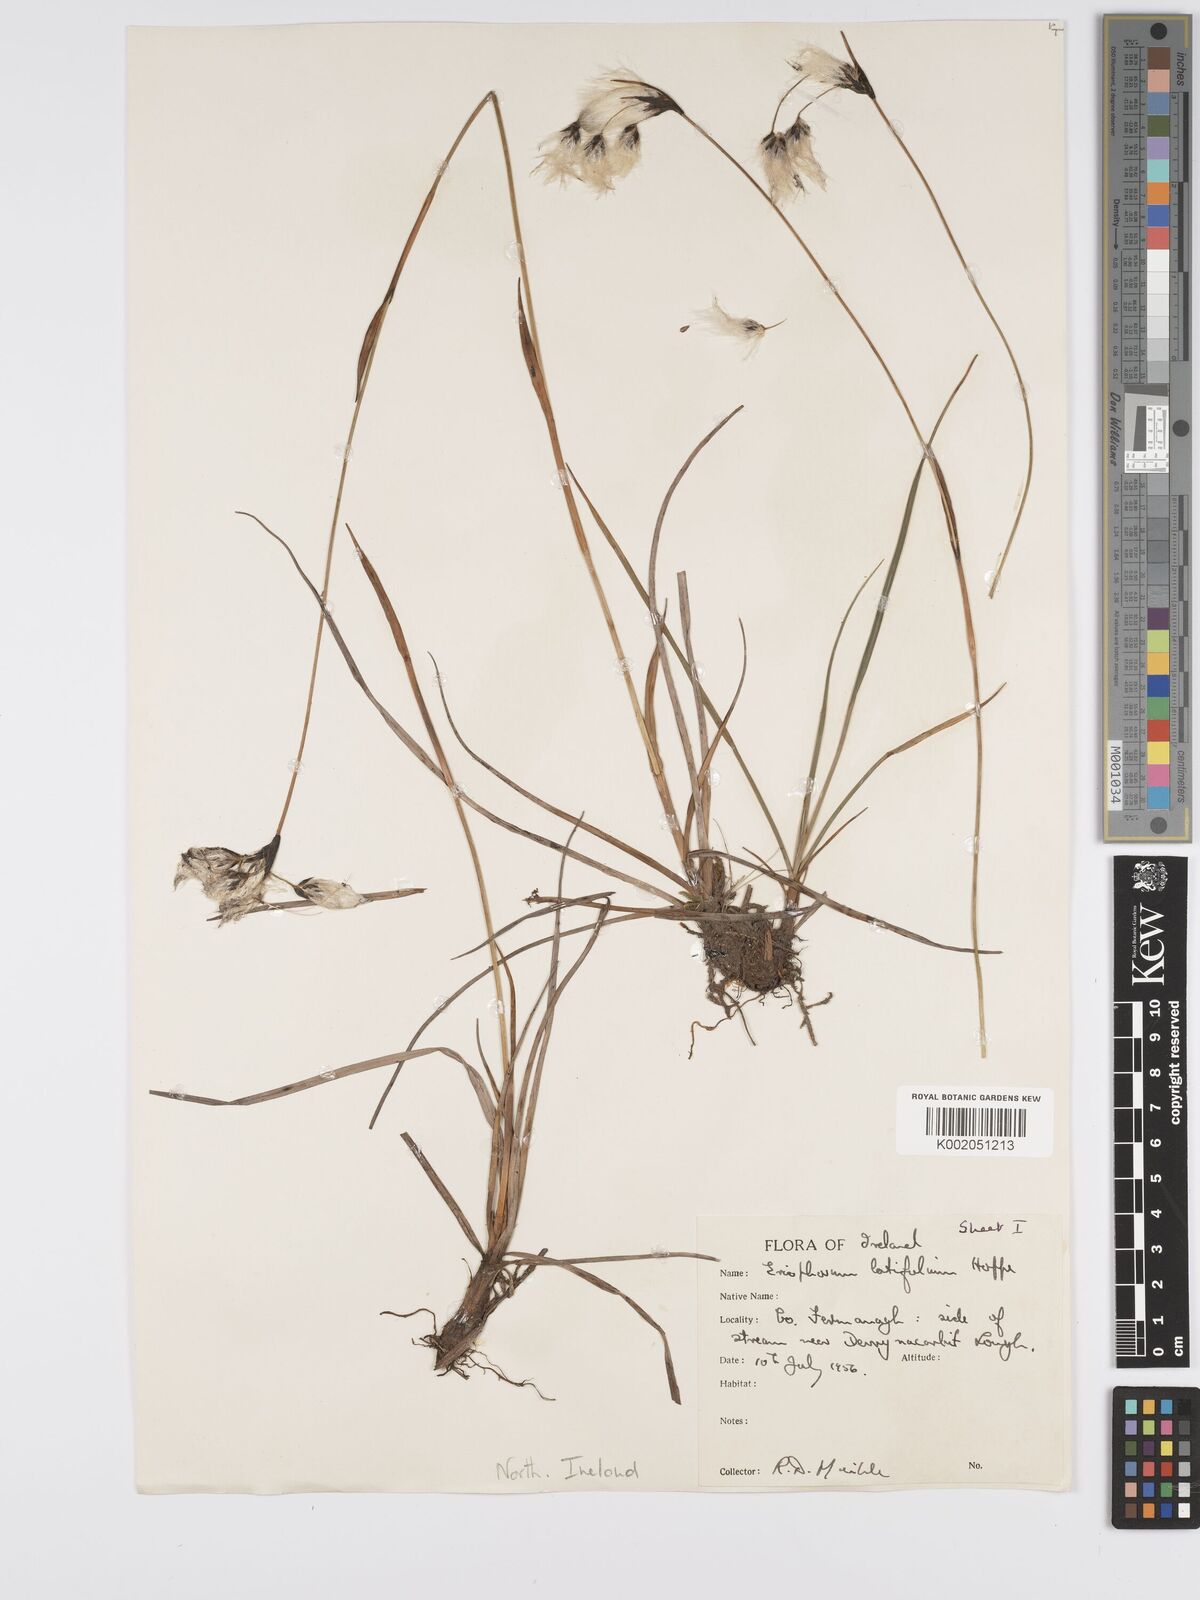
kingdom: Plantae
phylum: Tracheophyta
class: Liliopsida
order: Poales
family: Cyperaceae
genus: Eriophorum
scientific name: Eriophorum latifolium
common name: Broad-leaved cottongrass
